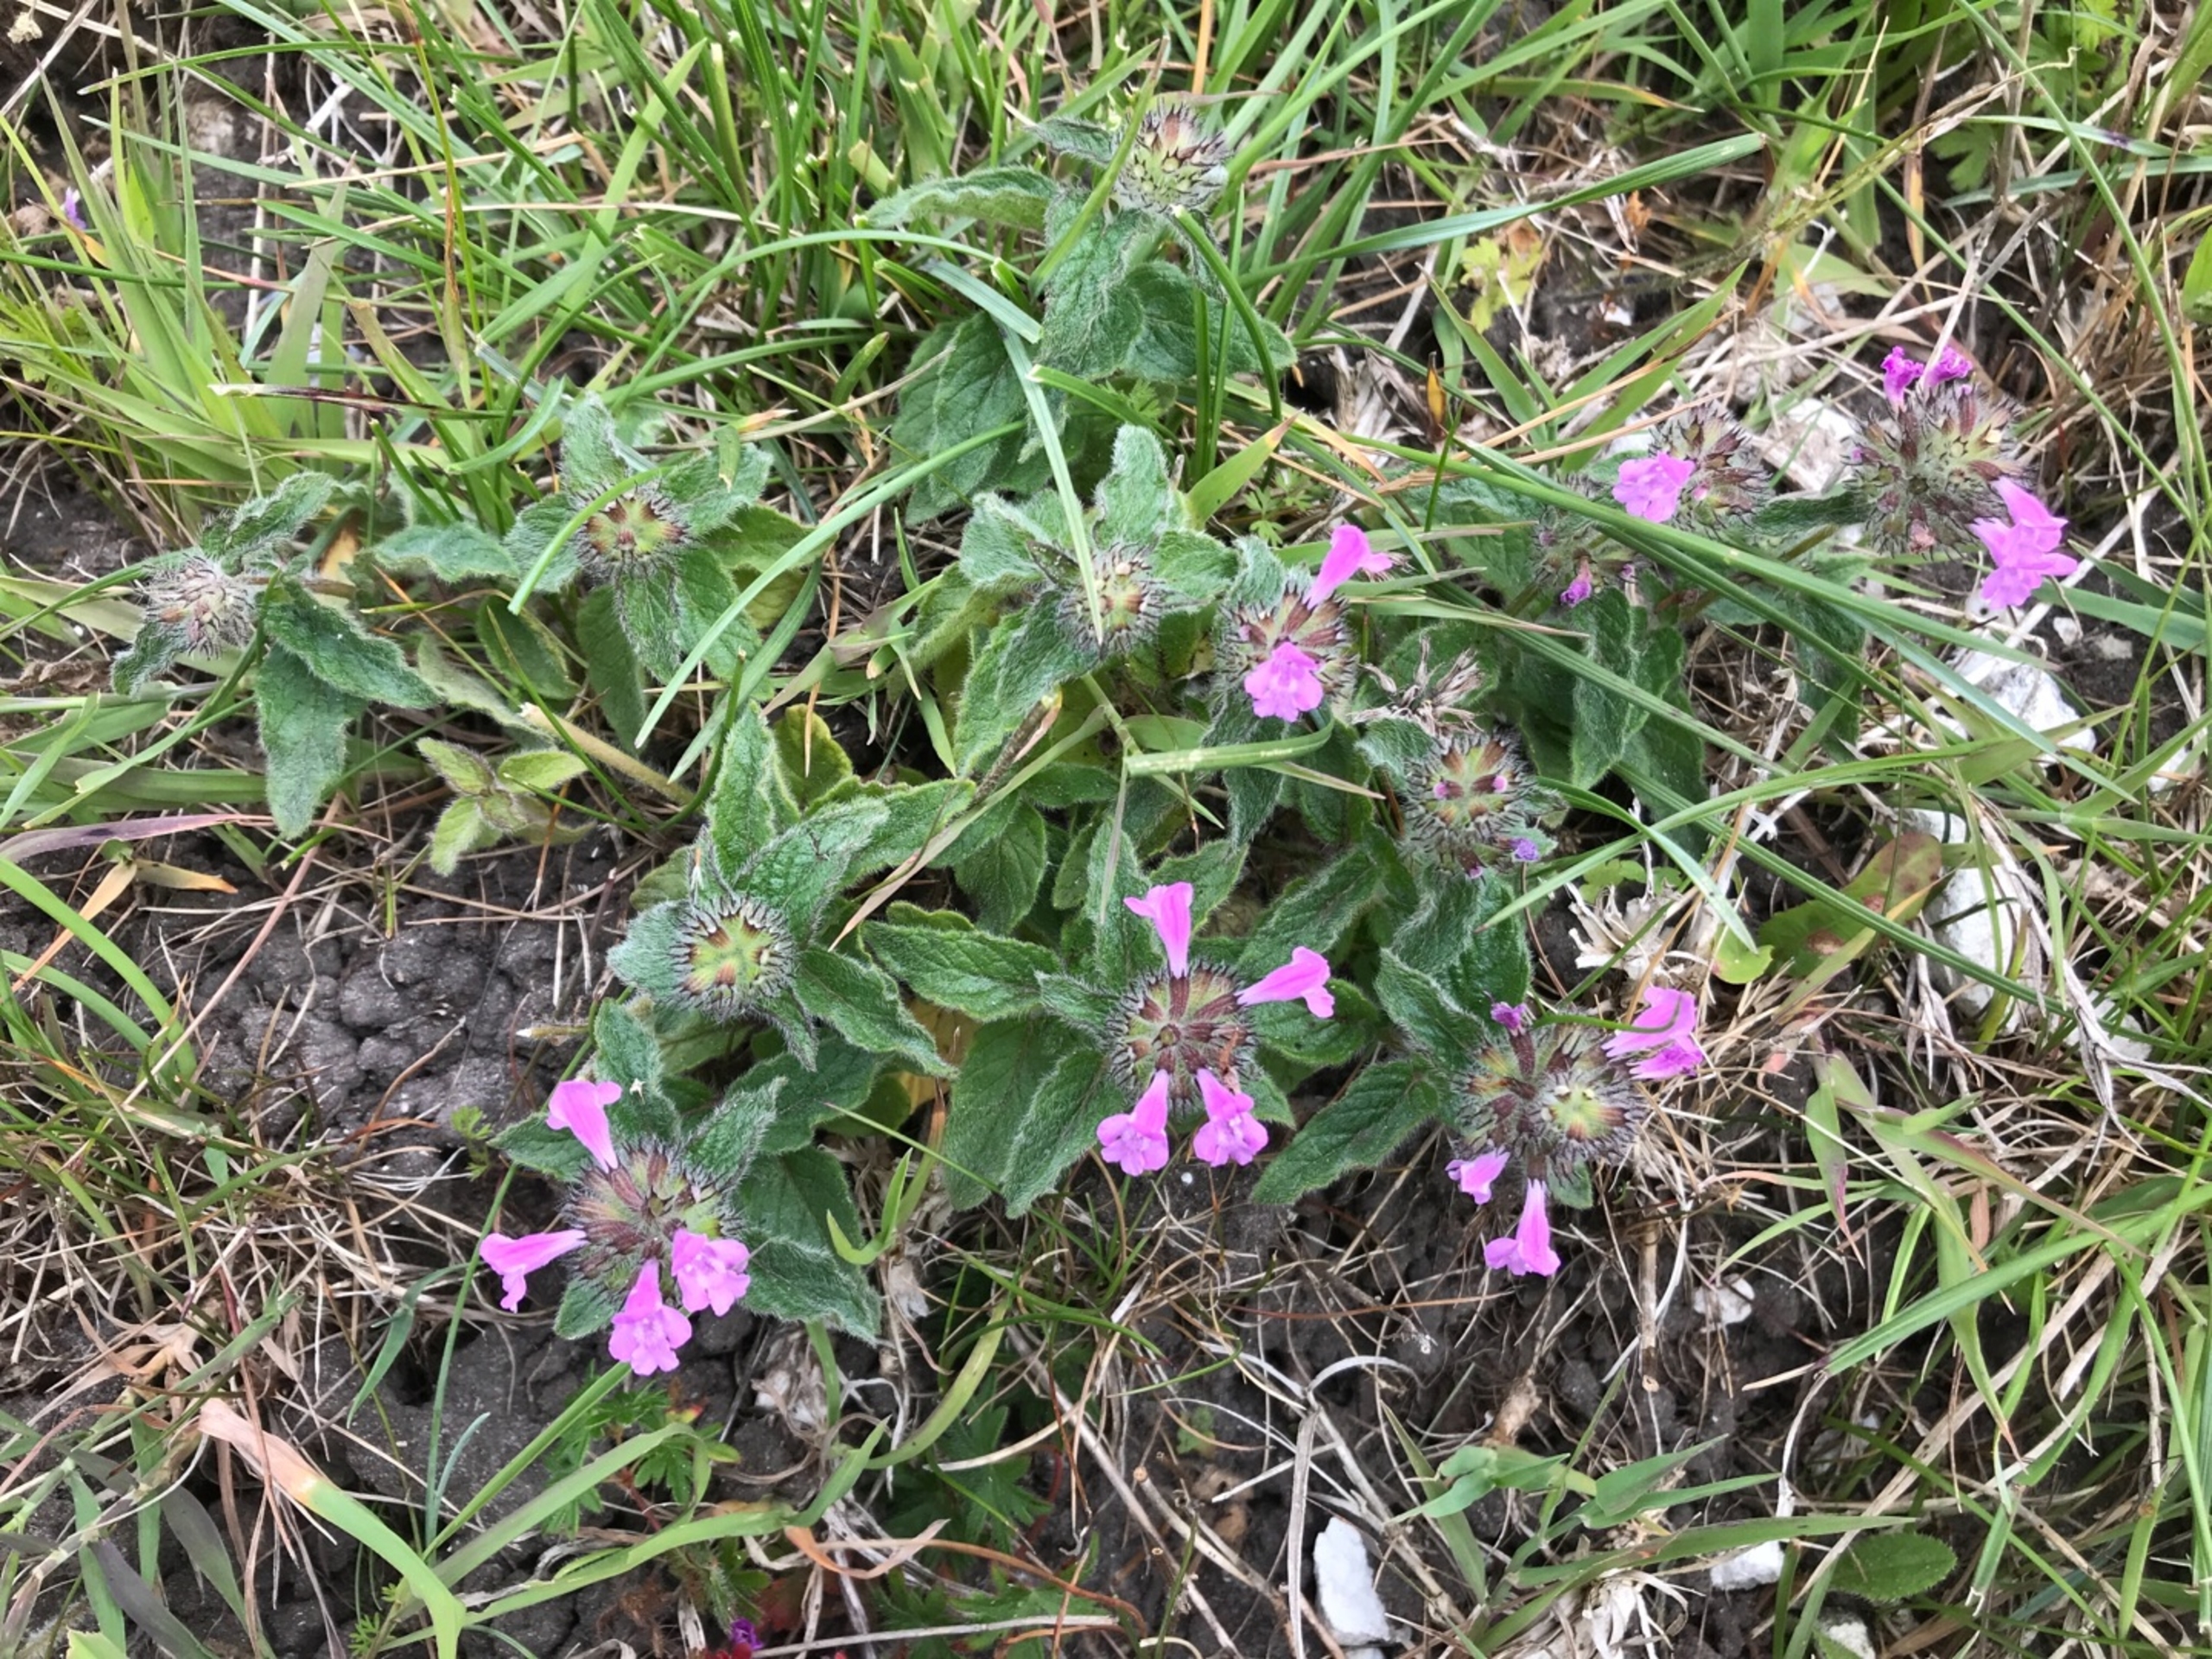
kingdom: Plantae
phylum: Tracheophyta
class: Magnoliopsida
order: Lamiales
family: Lamiaceae
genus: Clinopodium
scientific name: Clinopodium vulgare
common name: Kransbørste
